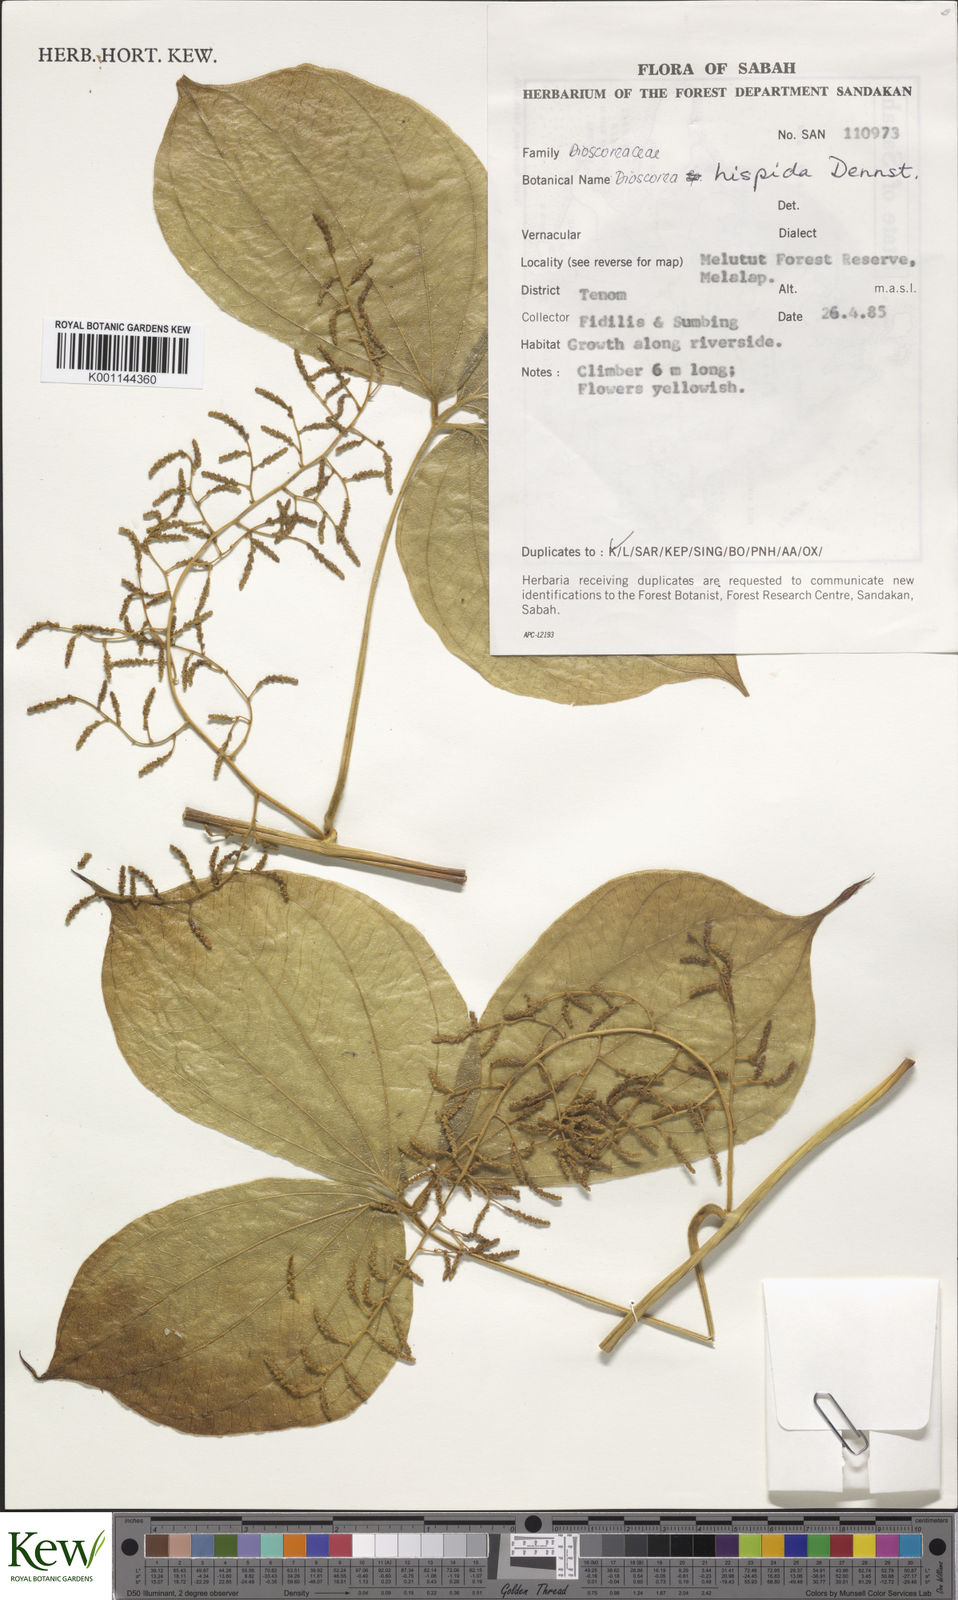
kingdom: Plantae
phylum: Tracheophyta
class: Liliopsida
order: Dioscoreales
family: Dioscoreaceae
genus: Dioscorea
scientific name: Dioscorea hispida
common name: Asiatic bitter yam
